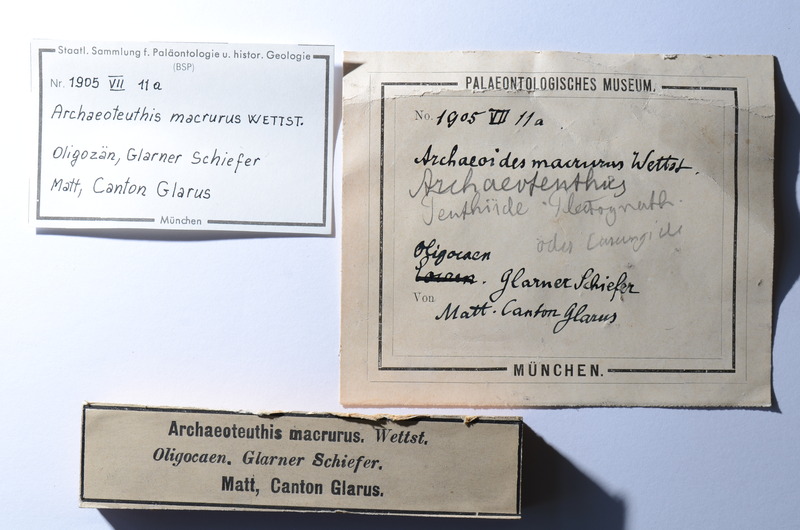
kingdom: Animalia
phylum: Chordata
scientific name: Chordata
